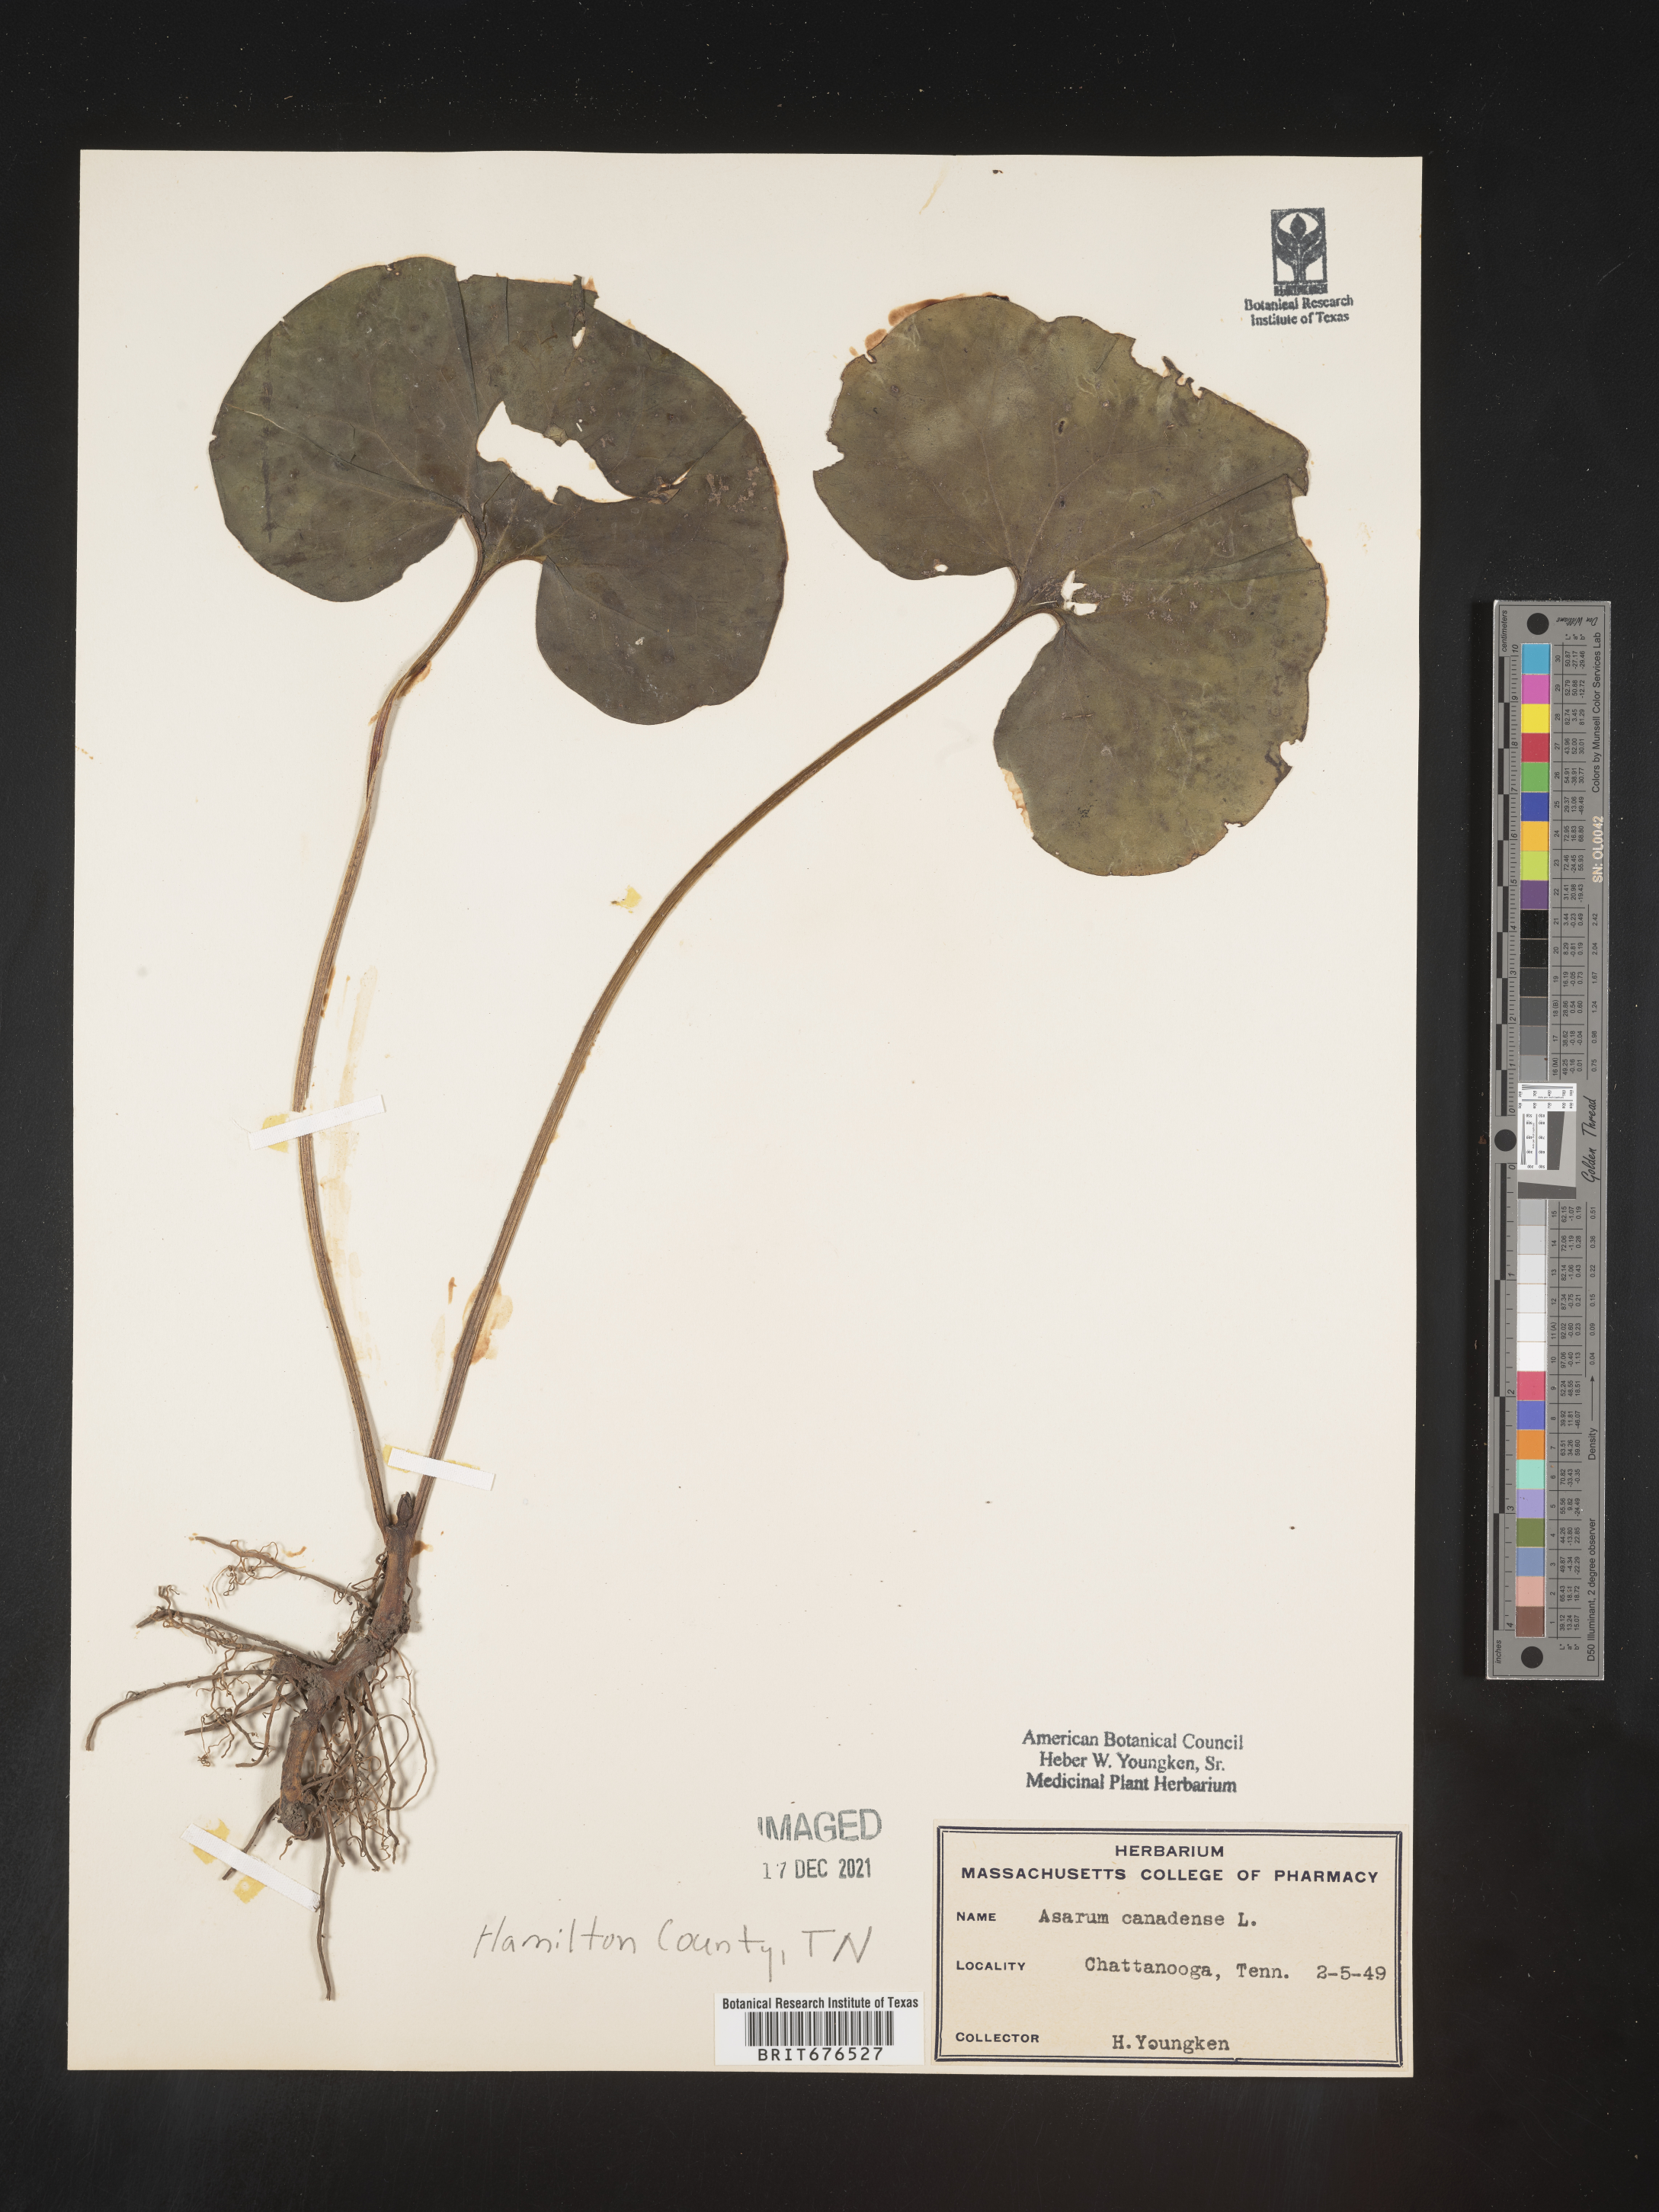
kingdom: Plantae
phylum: Tracheophyta
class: Magnoliopsida
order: Piperales
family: Aristolochiaceae
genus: Asarum
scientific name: Asarum canadense
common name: Wild ginger
